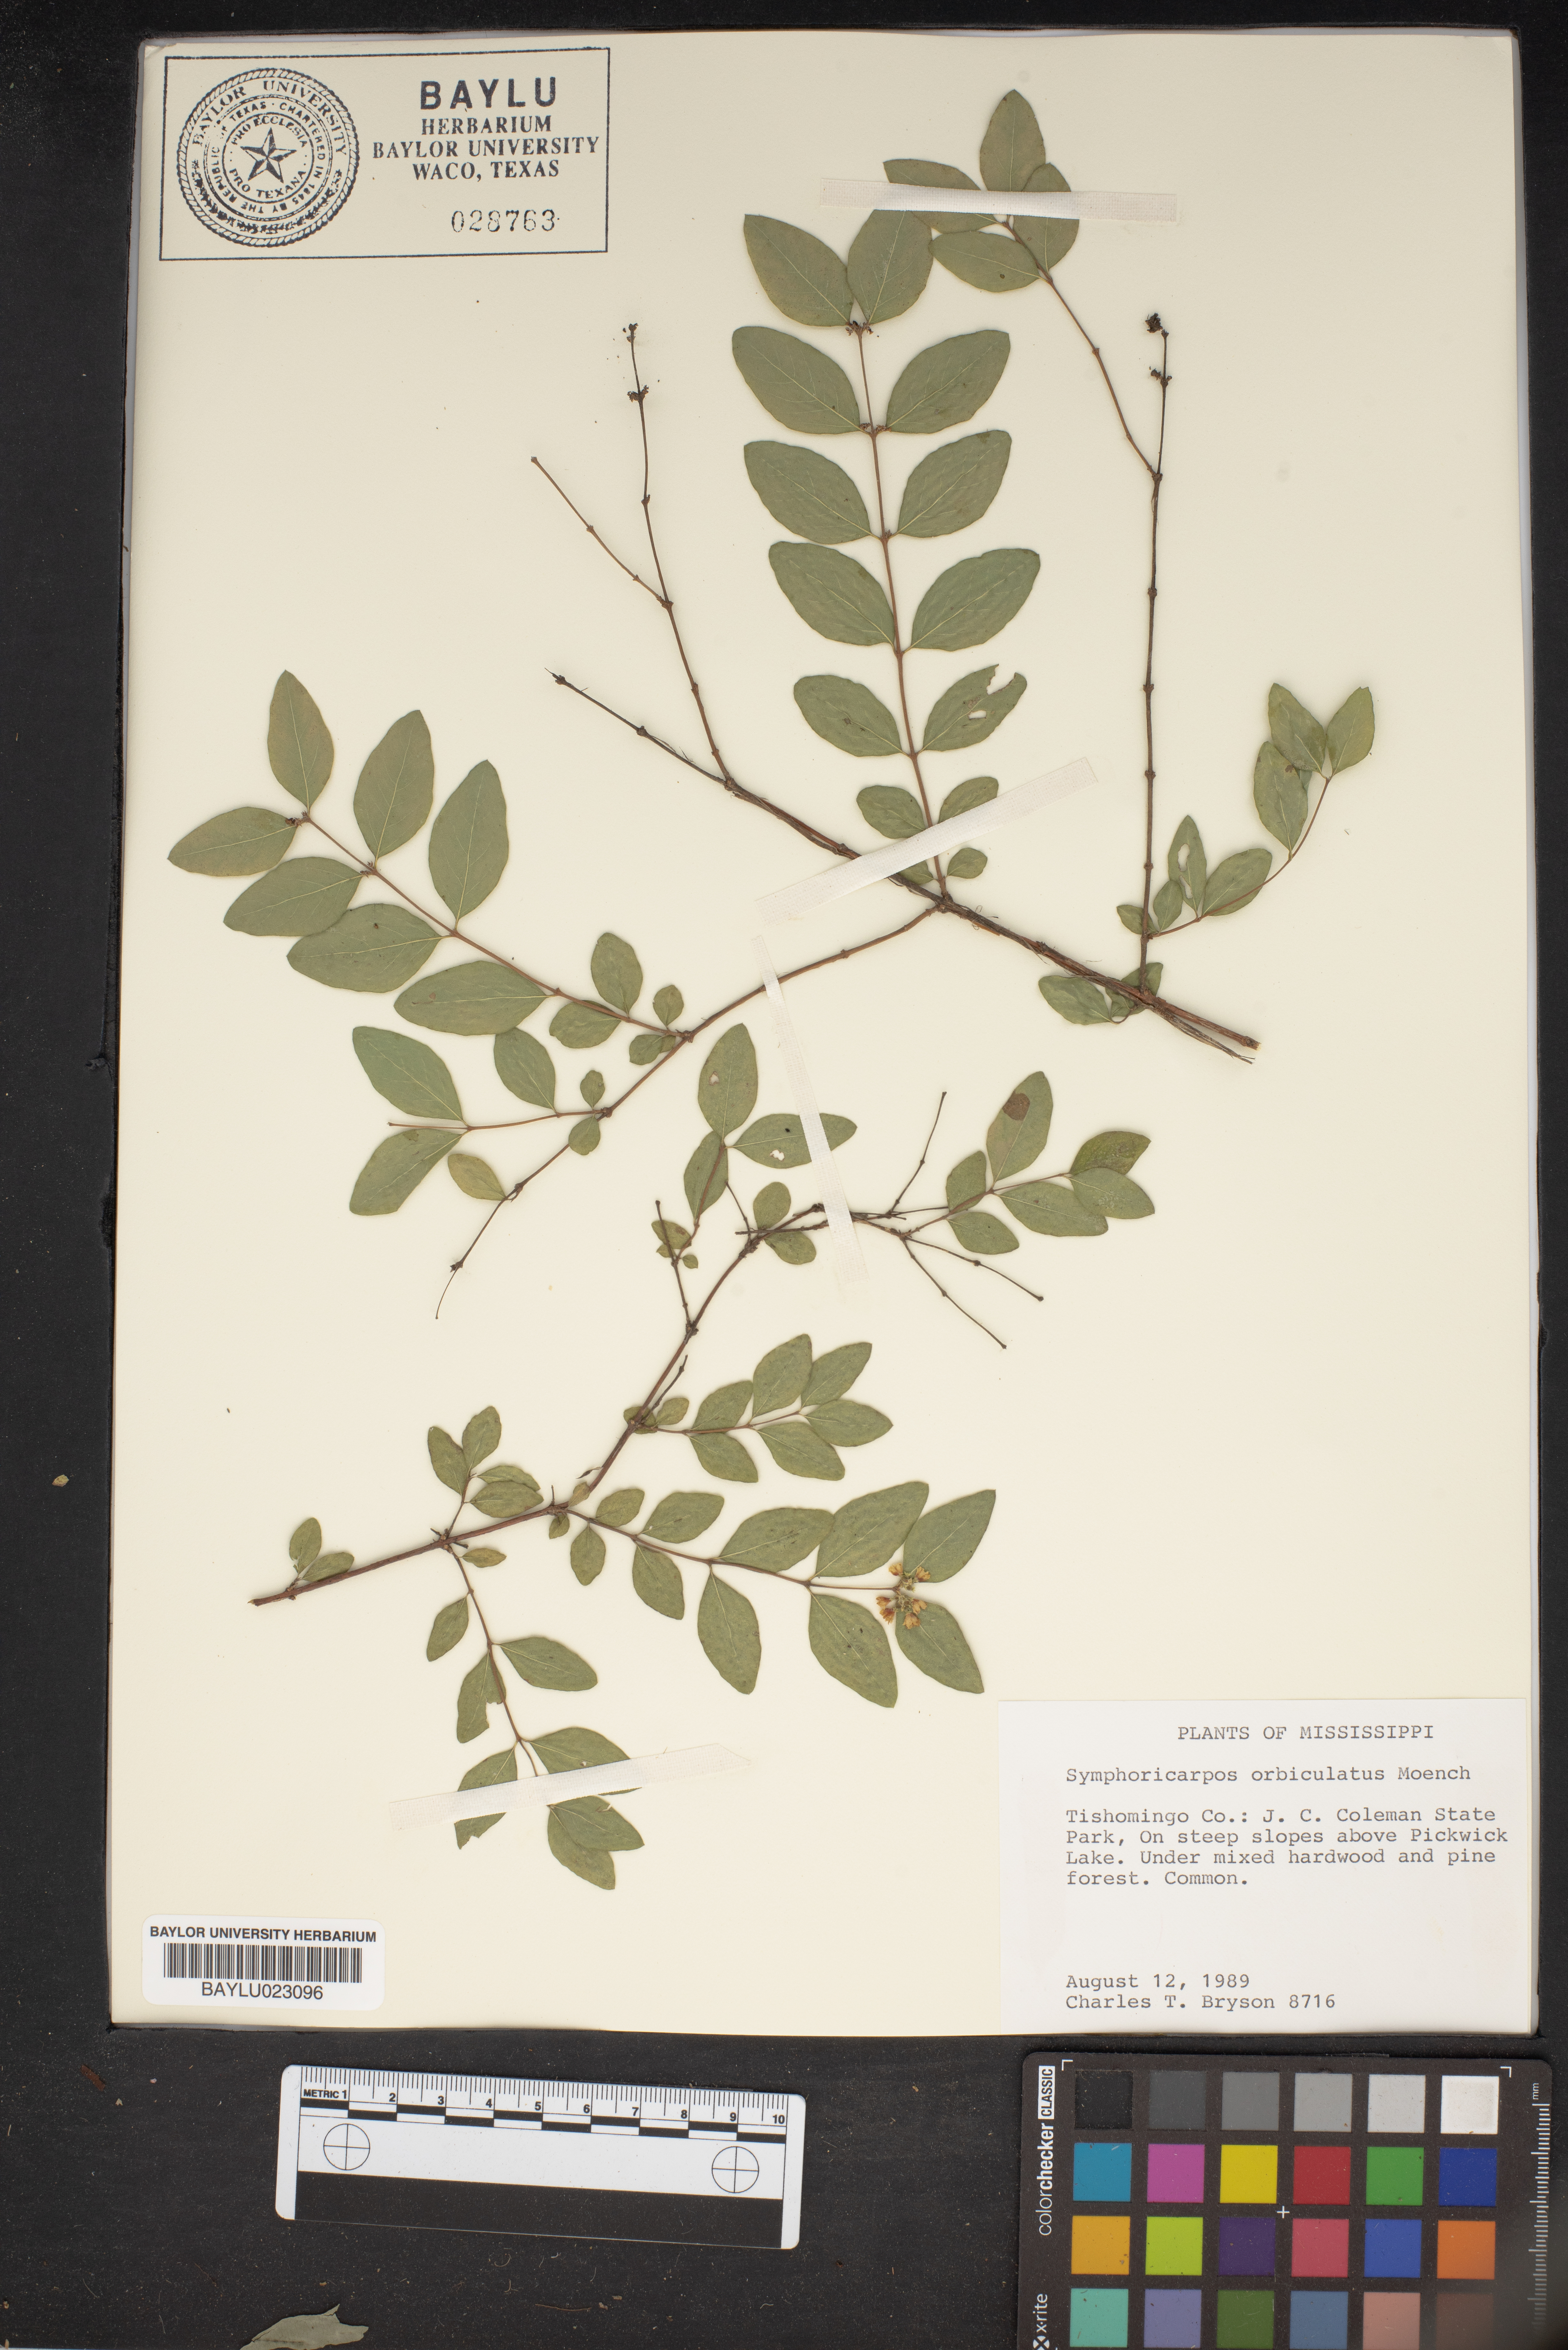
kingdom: Plantae
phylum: Tracheophyta
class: Magnoliopsida
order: Dipsacales
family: Caprifoliaceae
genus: Symphoricarpos
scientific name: Symphoricarpos orbiculatus
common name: Coralberry
